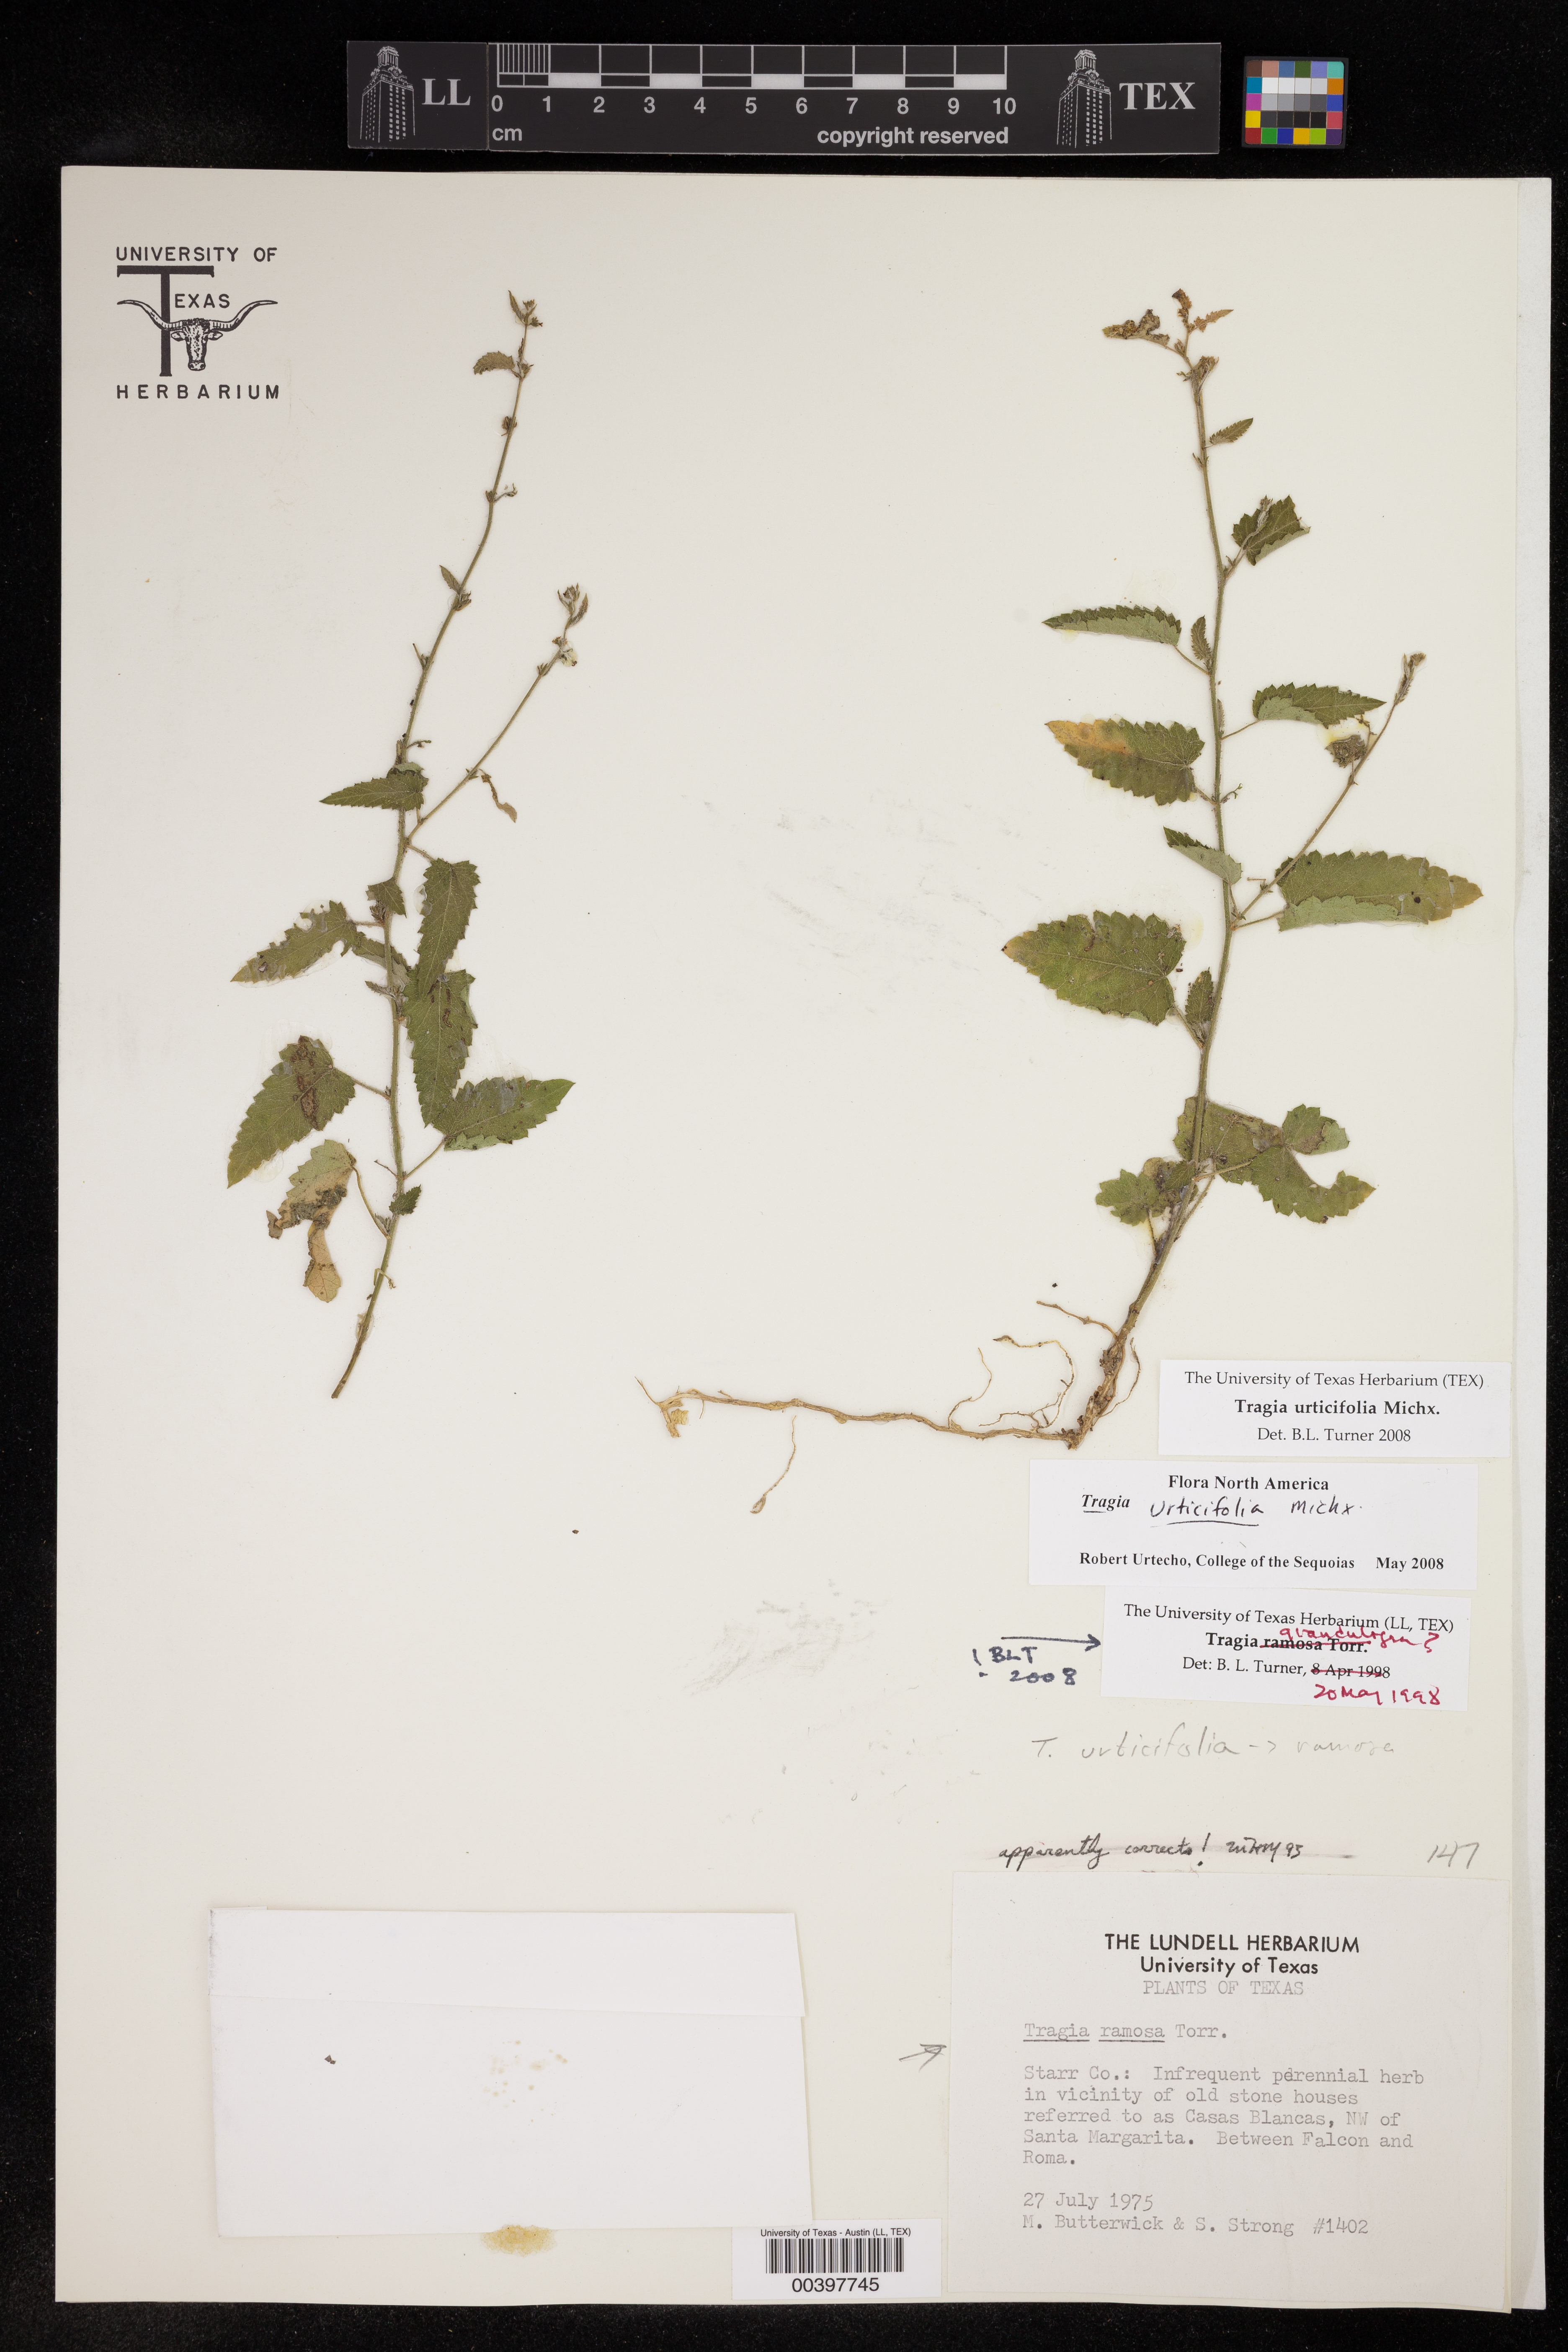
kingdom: Plantae
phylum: Tracheophyta
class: Magnoliopsida
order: Malpighiales
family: Euphorbiaceae
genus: Tragia
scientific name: Tragia urticifolia
